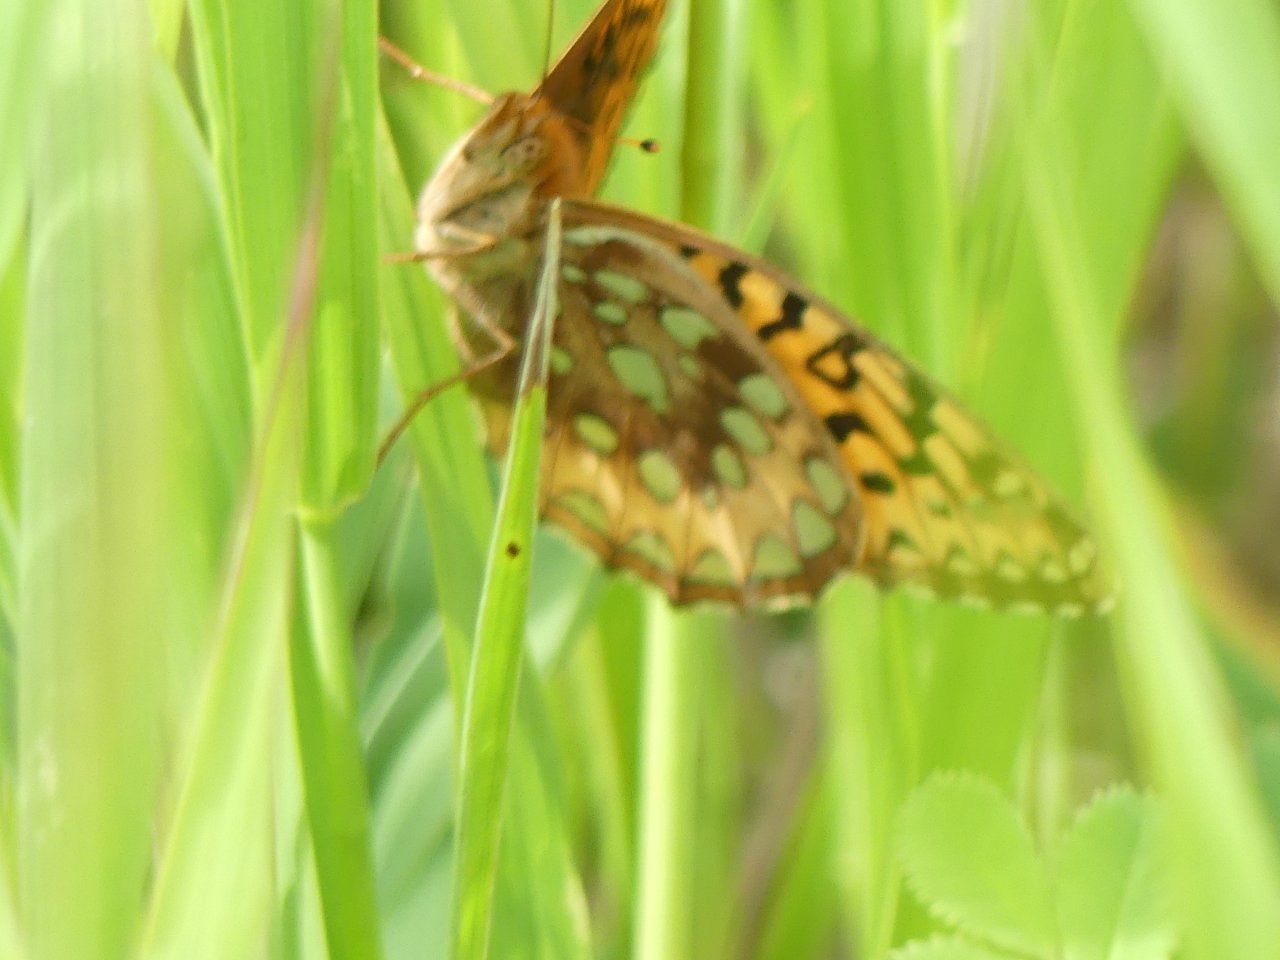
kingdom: Animalia
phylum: Arthropoda
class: Insecta
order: Lepidoptera
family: Nymphalidae
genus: Speyeria
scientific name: Speyeria atlantis
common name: Atlantis Fritillary
